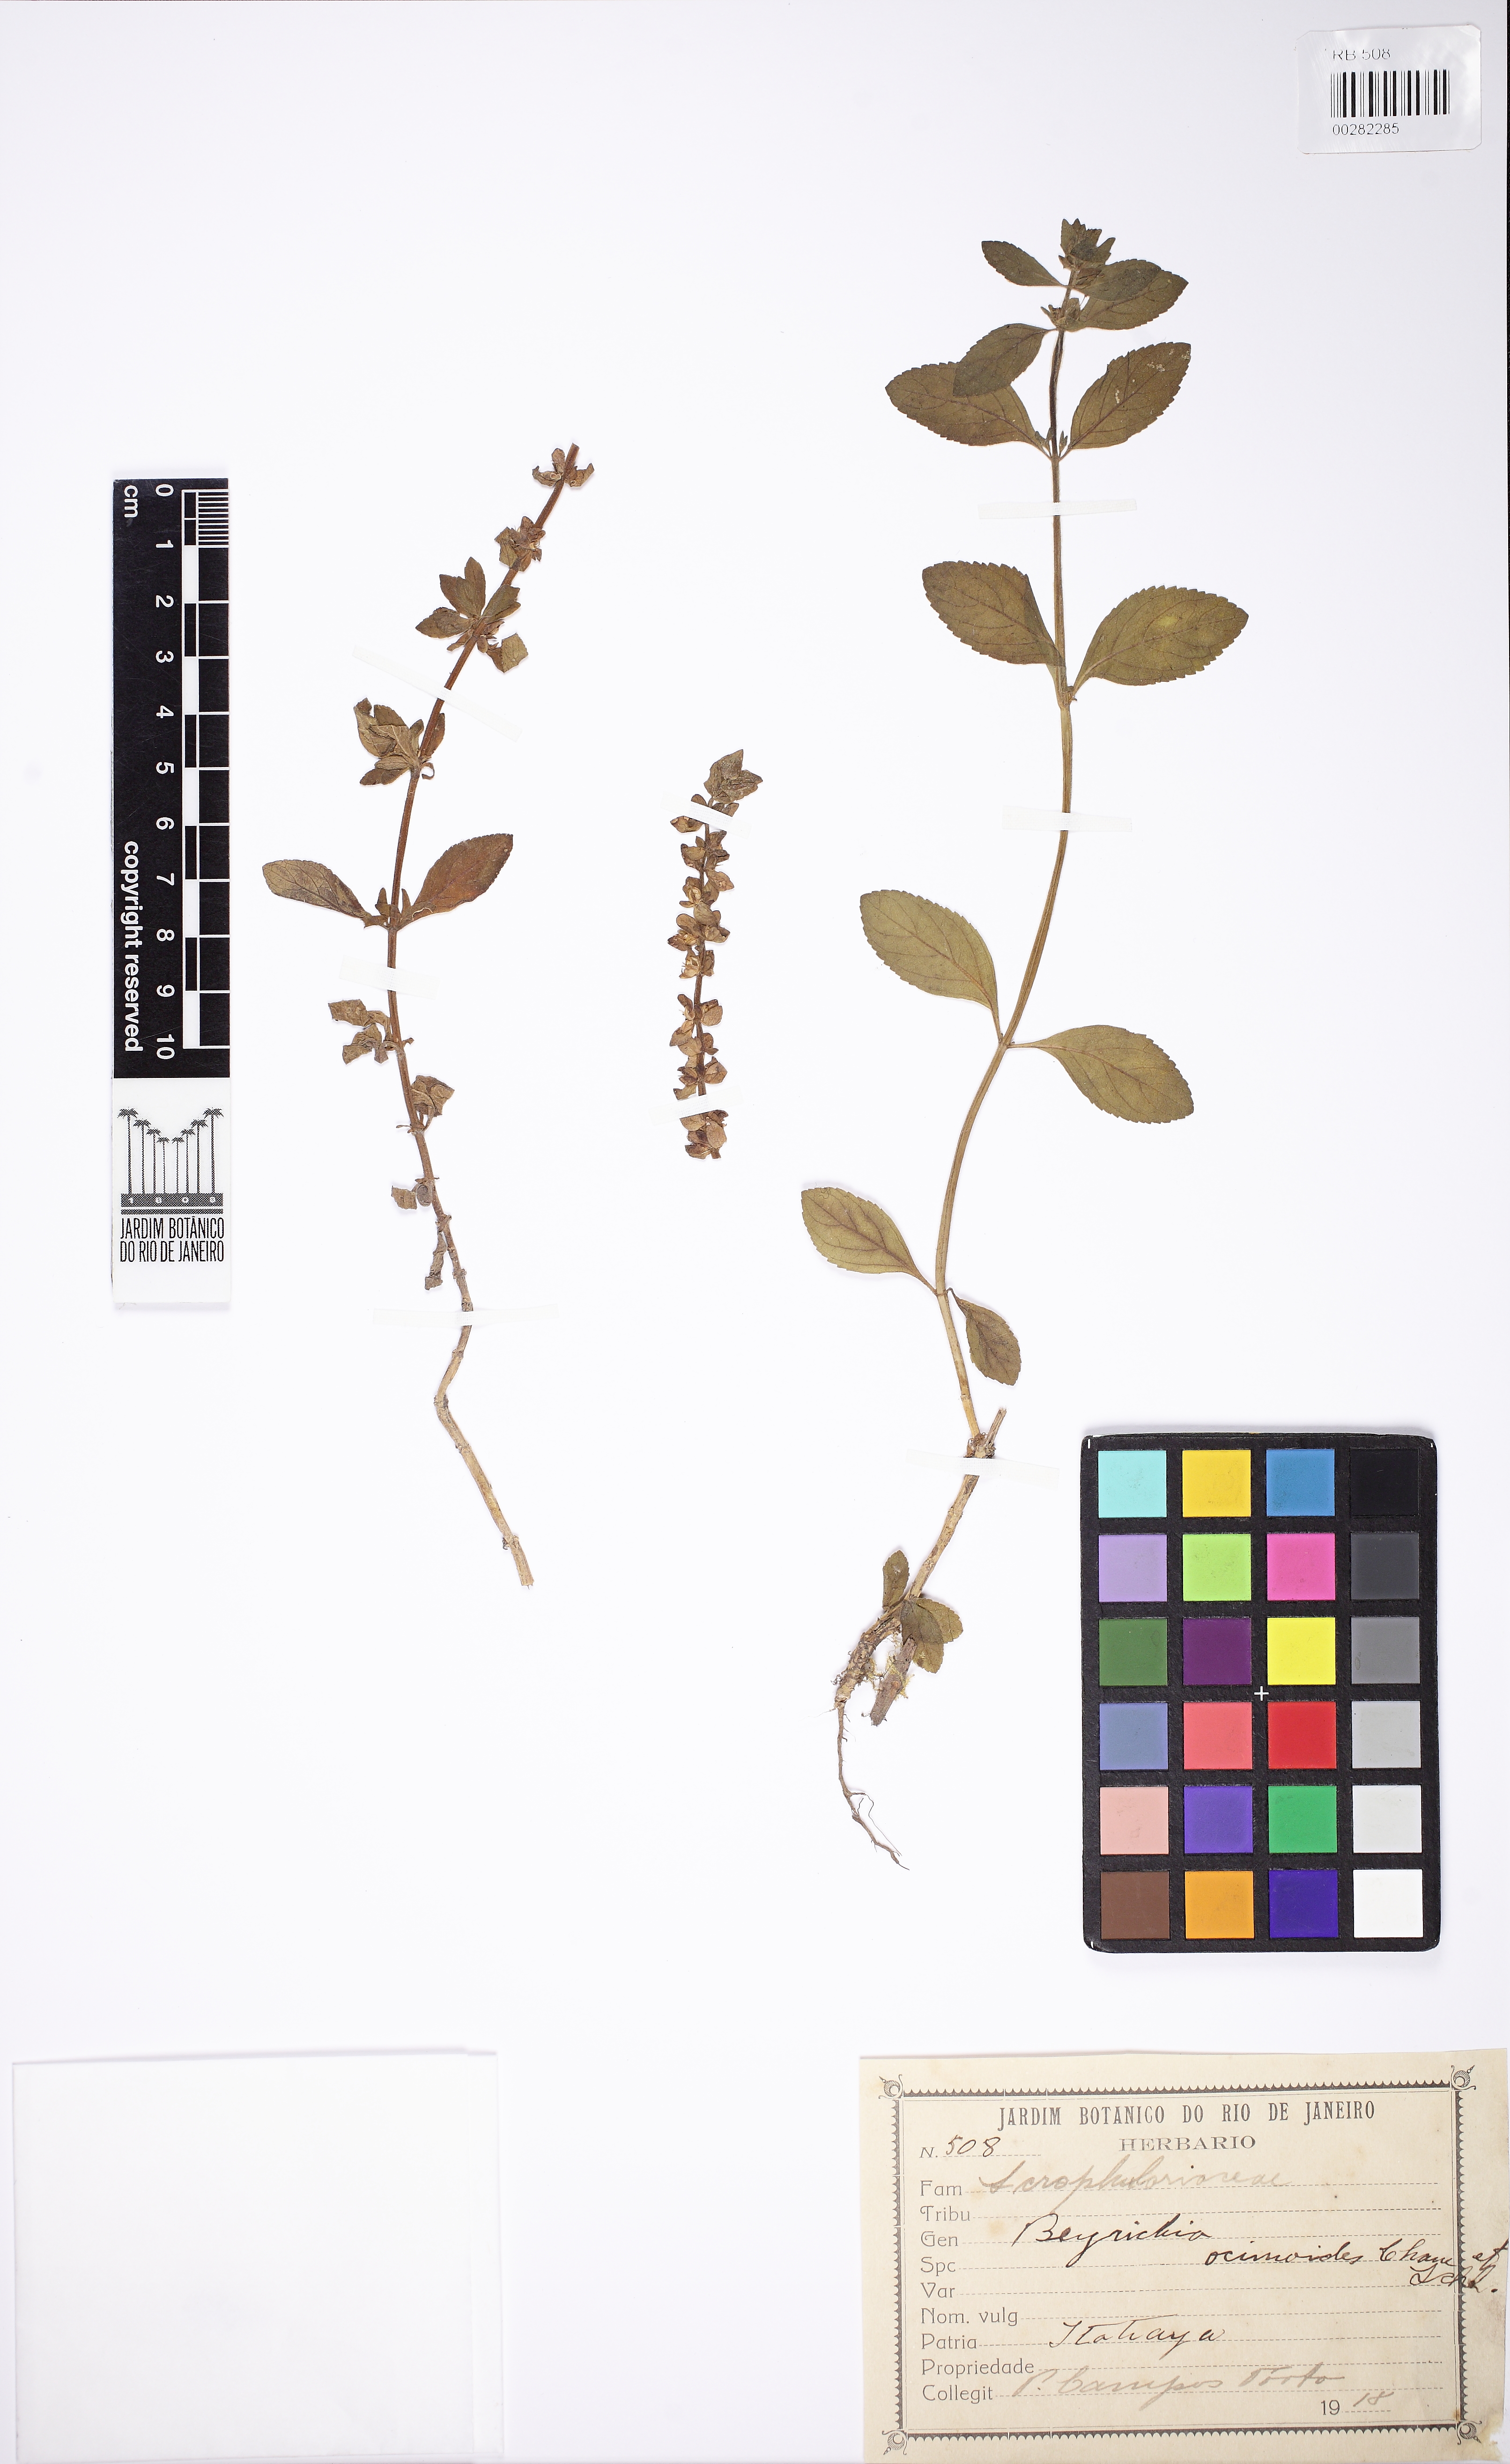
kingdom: Plantae
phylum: Tracheophyta
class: Magnoliopsida
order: Lamiales
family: Plantaginaceae
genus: Matourea
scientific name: Matourea ocymoides
